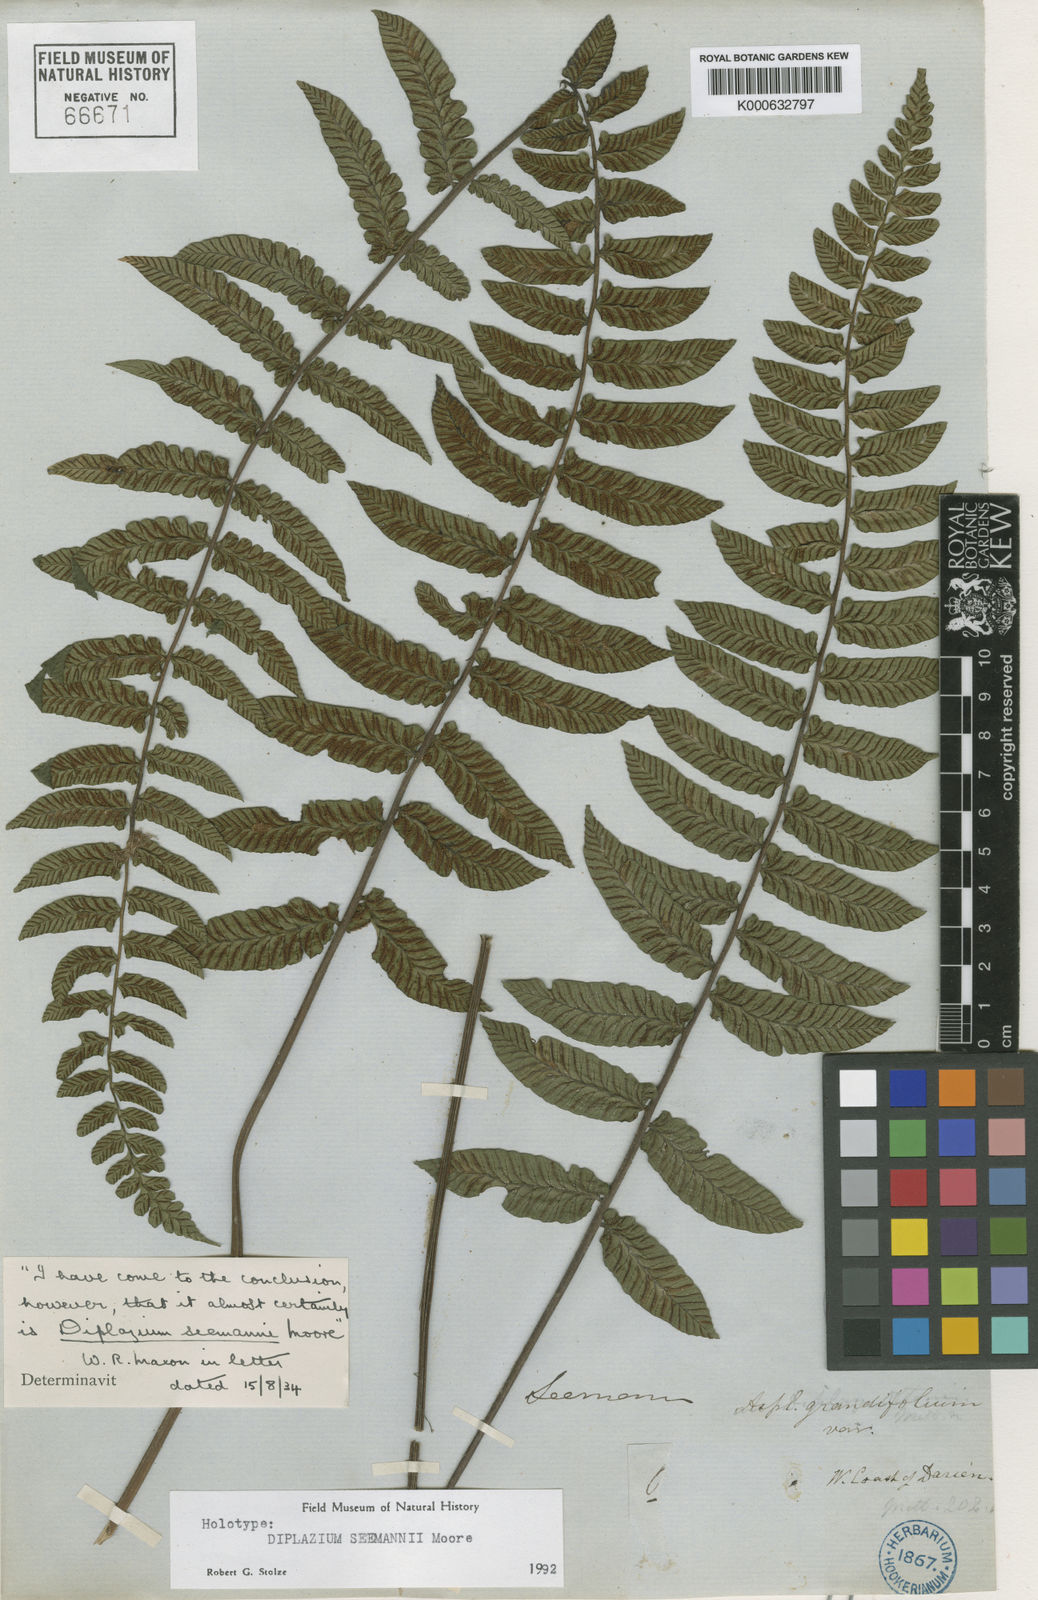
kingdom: Plantae
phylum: Tracheophyta
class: Polypodiopsida
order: Polypodiales
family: Athyriaceae
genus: Diplazium
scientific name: Diplazium seemaunii
